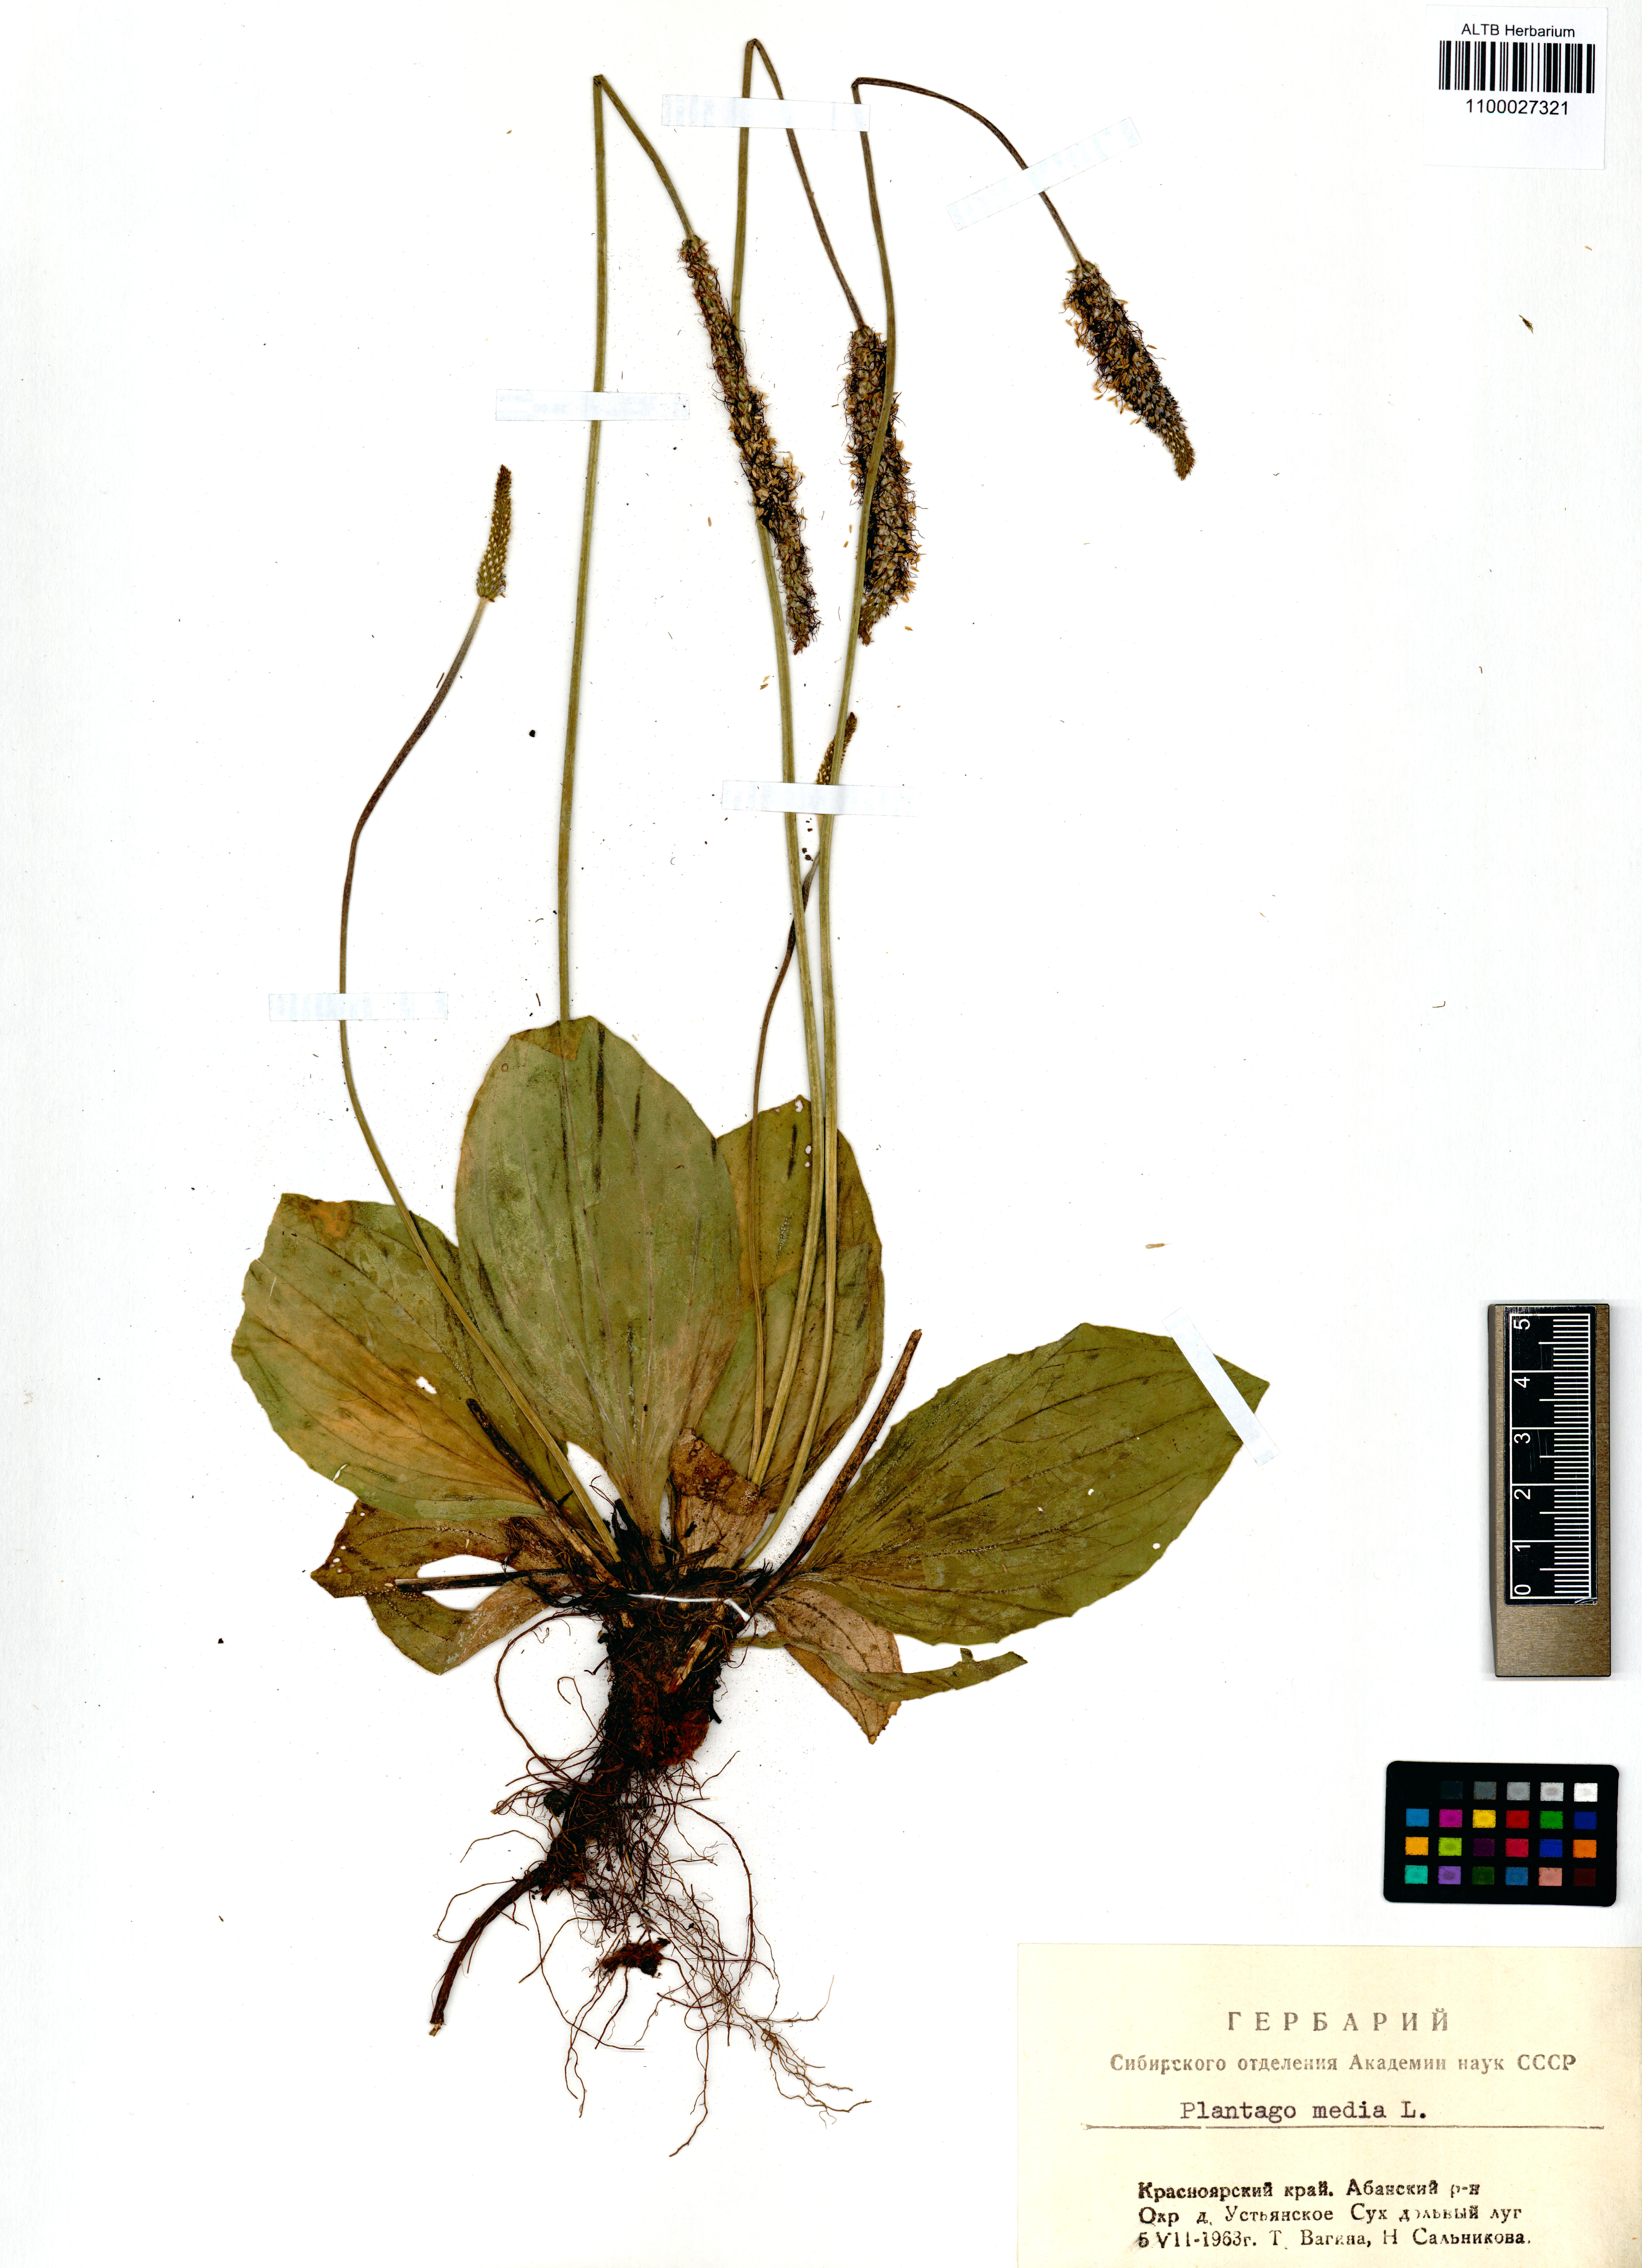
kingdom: Plantae
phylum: Tracheophyta
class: Magnoliopsida
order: Lamiales
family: Plantaginaceae
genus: Plantago
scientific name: Plantago media
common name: Hoary plantain
